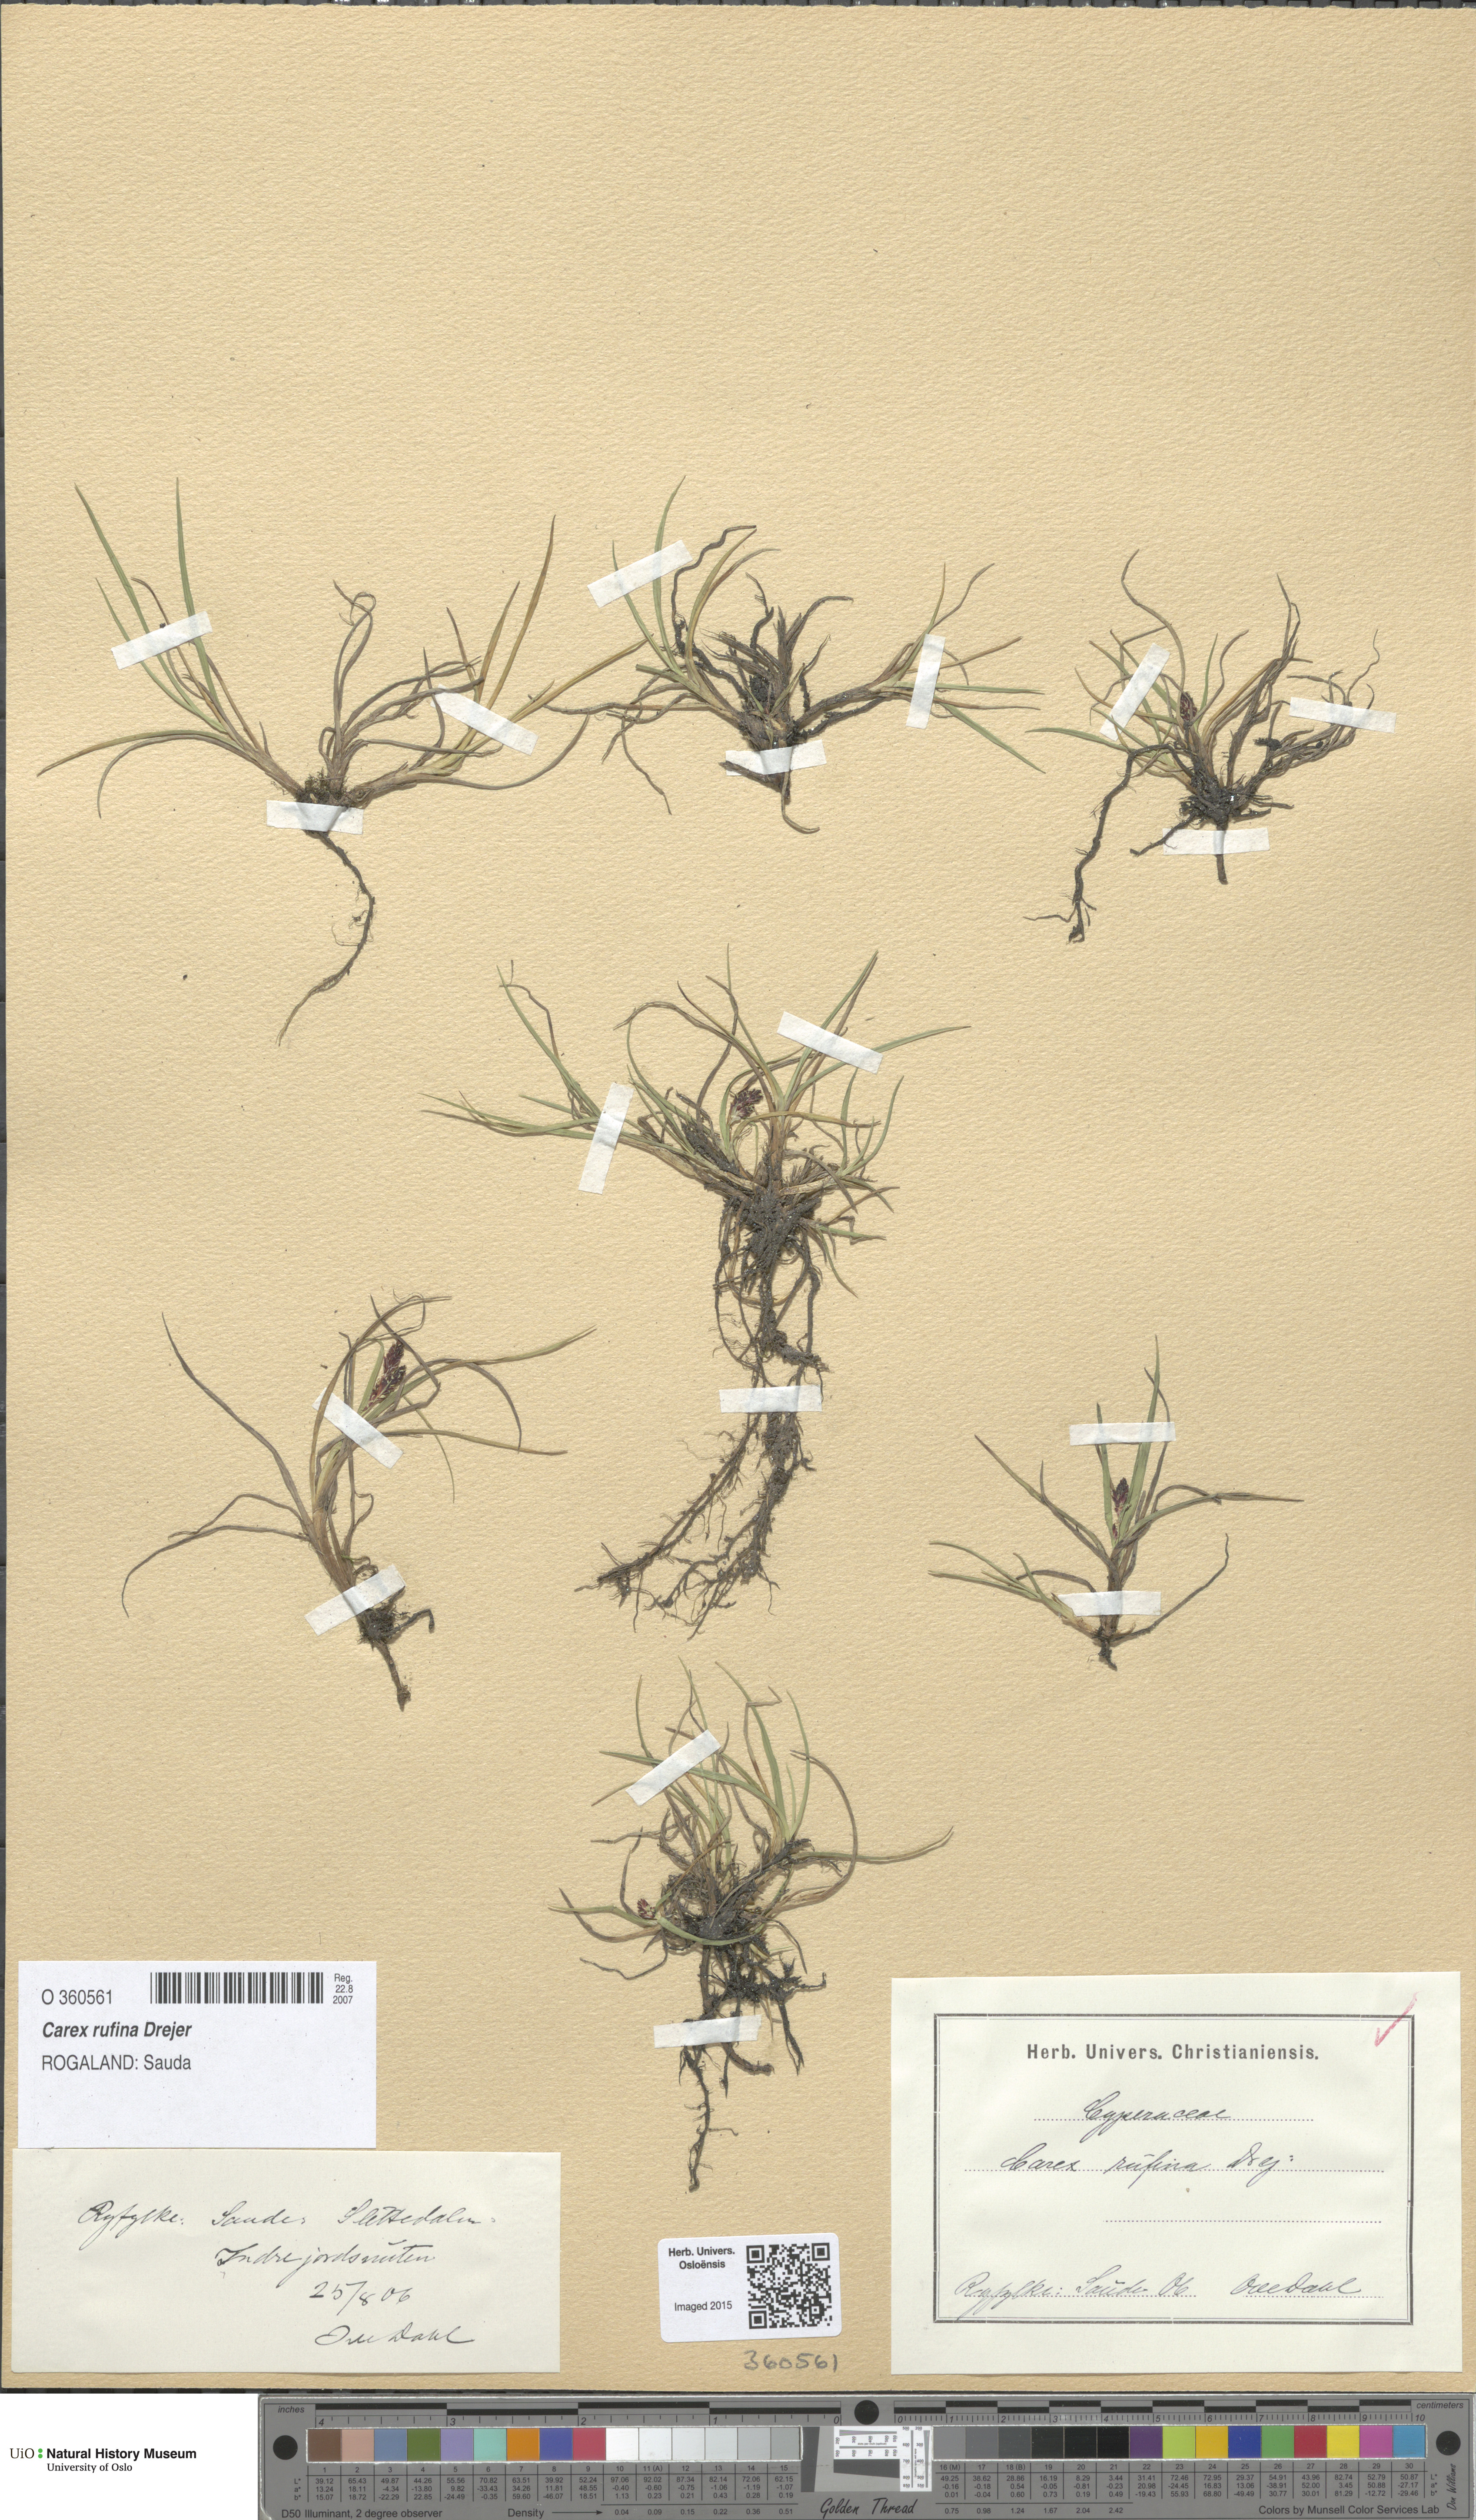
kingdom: Plantae
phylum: Tracheophyta
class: Liliopsida
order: Poales
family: Cyperaceae
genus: Carex
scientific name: Carex rufina
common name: Reddish sedge
